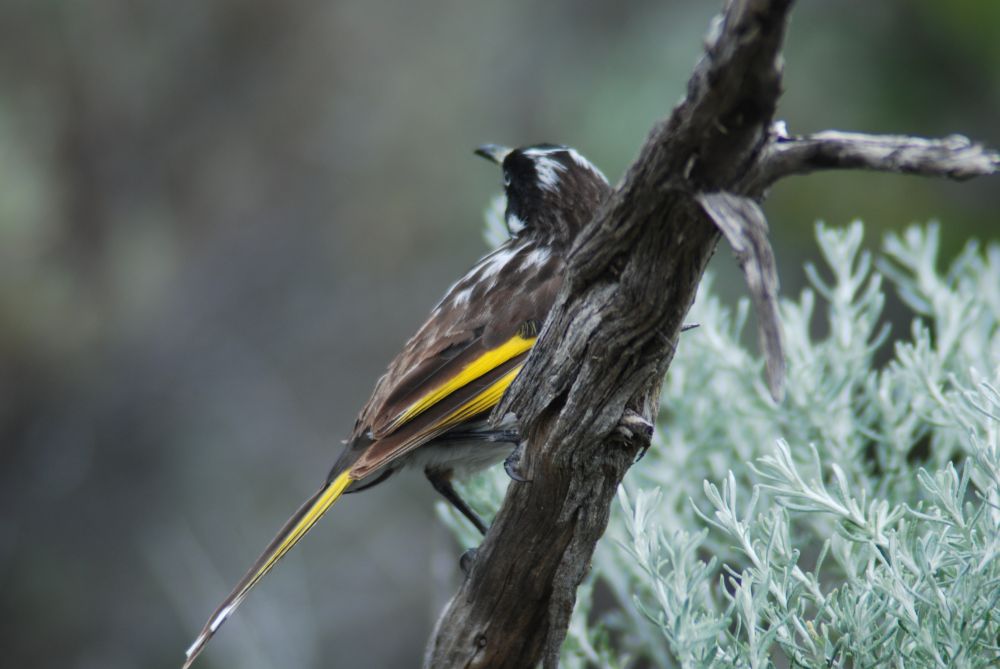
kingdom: Animalia
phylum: Chordata
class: Aves
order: Passeriformes
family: Meliphagidae
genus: Phylidonyris
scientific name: Phylidonyris novaehollandiae
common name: New holland honeyeater
